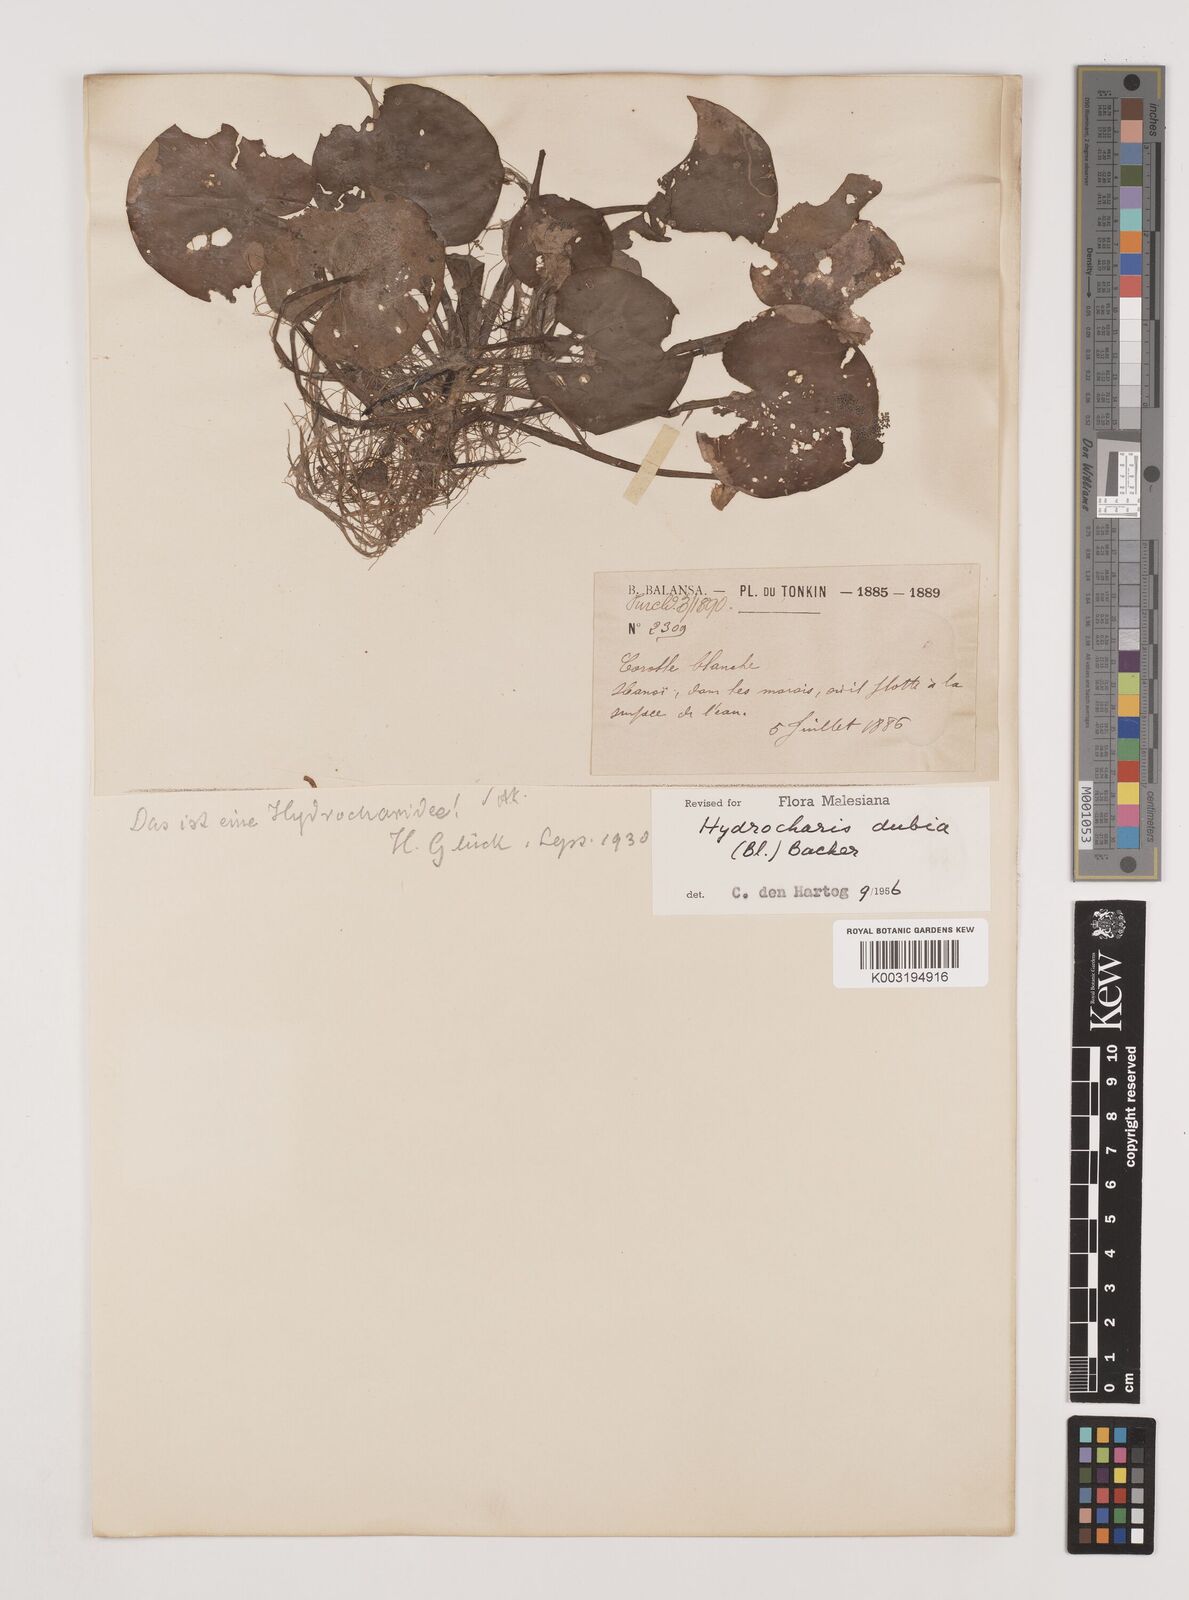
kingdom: Plantae
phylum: Tracheophyta
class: Liliopsida
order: Alismatales
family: Hydrocharitaceae
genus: Hydrocharis
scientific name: Hydrocharis dubia
